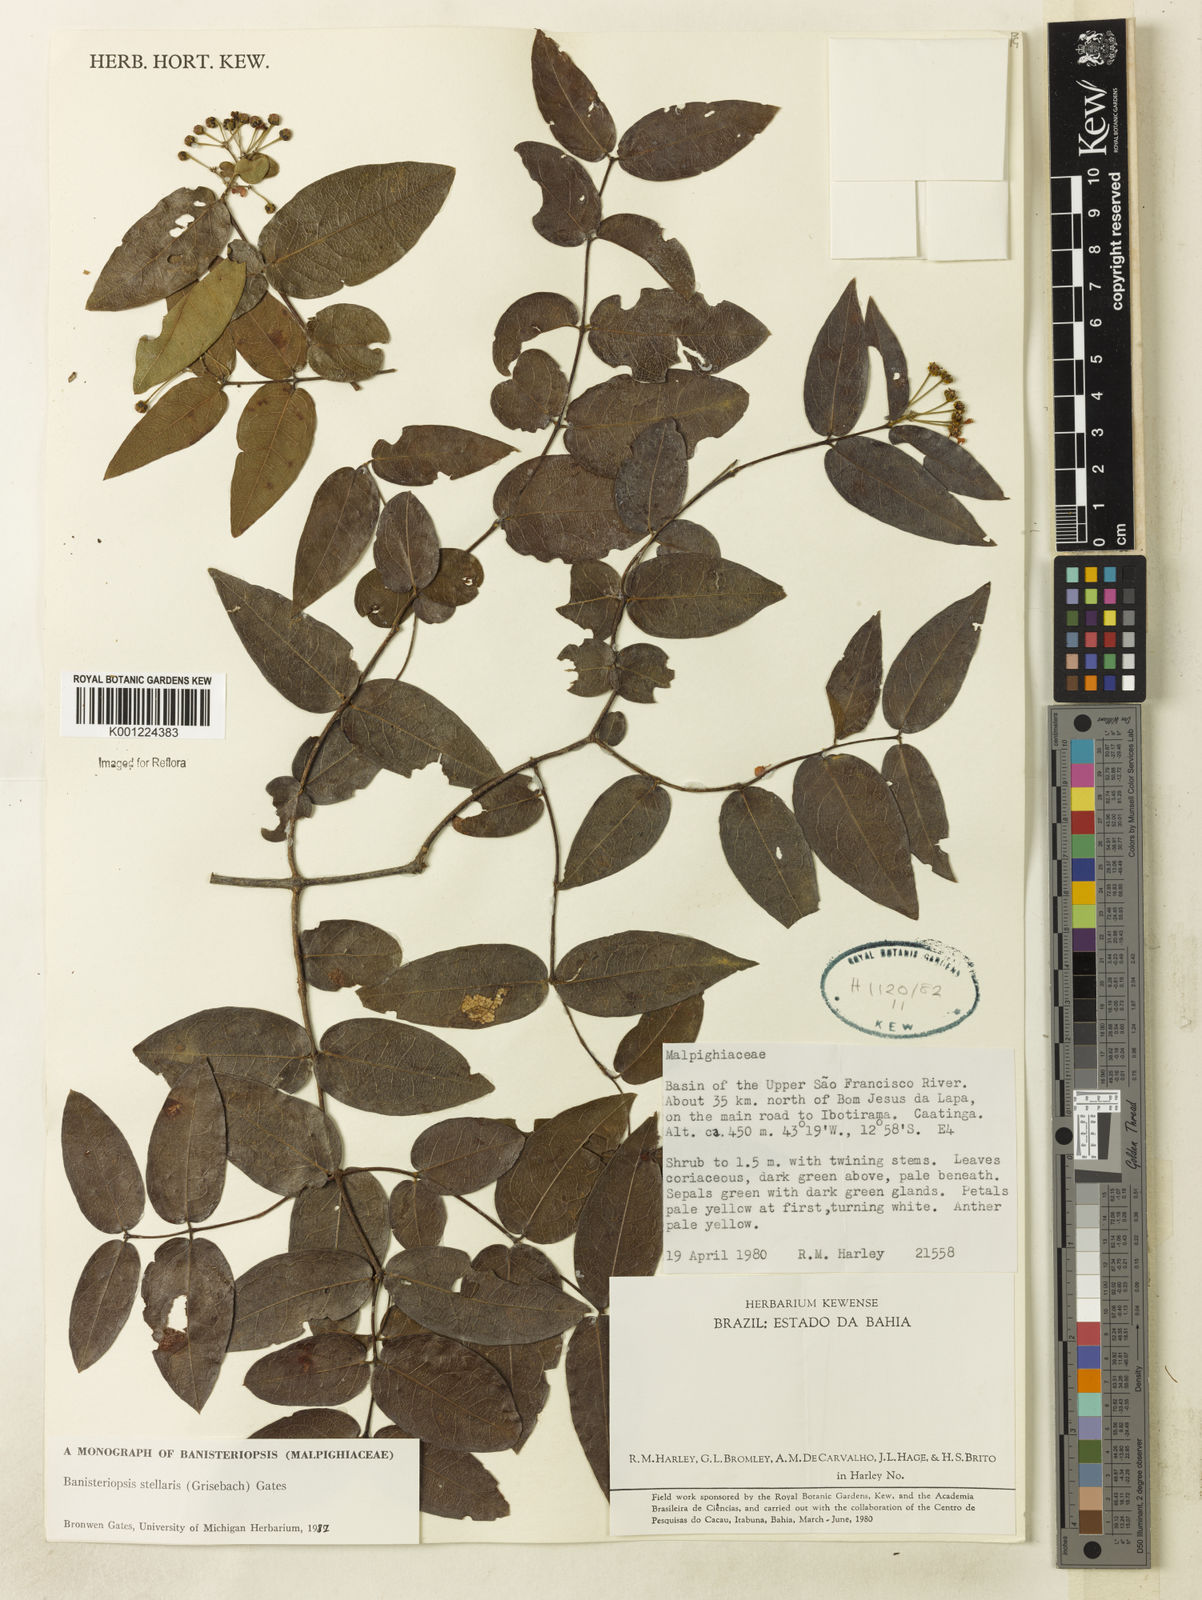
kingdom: Plantae
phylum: Tracheophyta
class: Magnoliopsida
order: Malpighiales
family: Malpighiaceae
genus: Banisteriopsis
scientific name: Banisteriopsis stellaris
